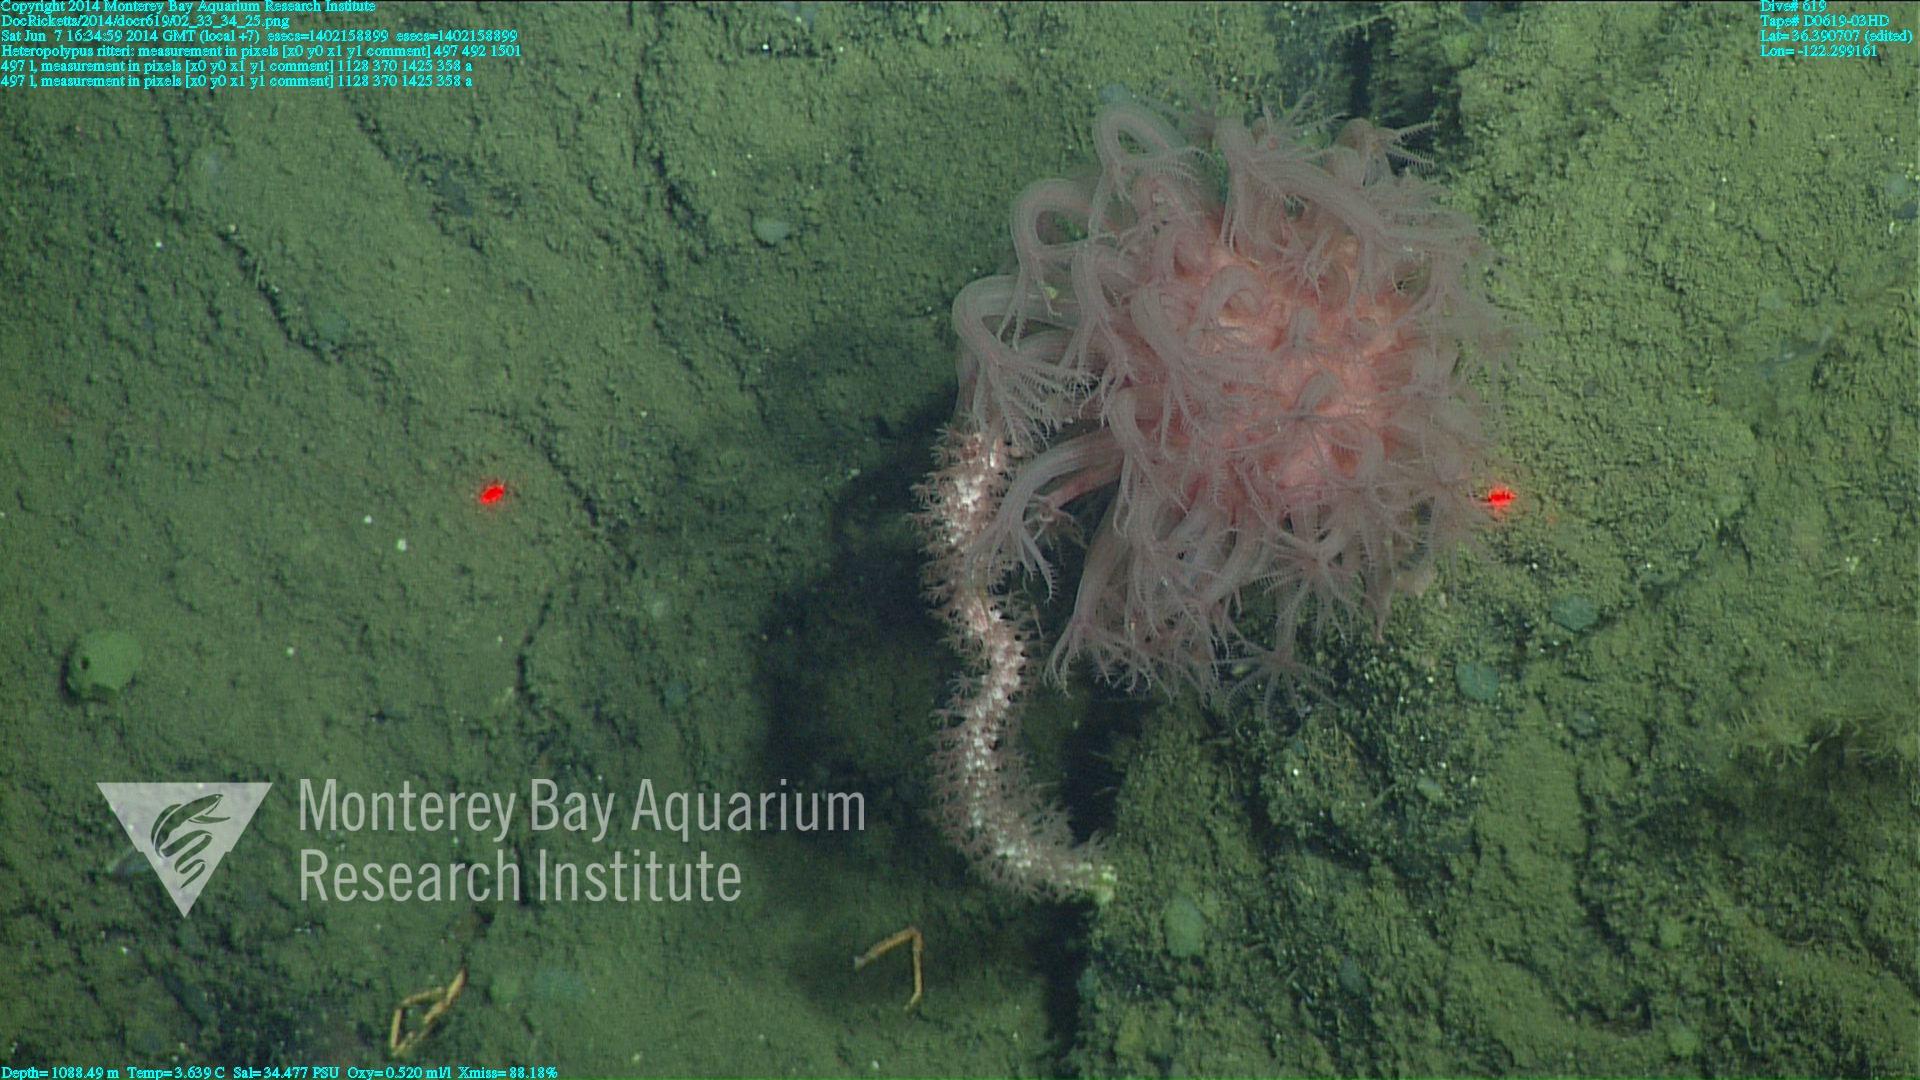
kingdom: Animalia
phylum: Cnidaria
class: Anthozoa
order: Scleralcyonacea
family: Coralliidae
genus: Heteropolypus
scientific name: Heteropolypus ritteri
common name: Ritter's soft coral
